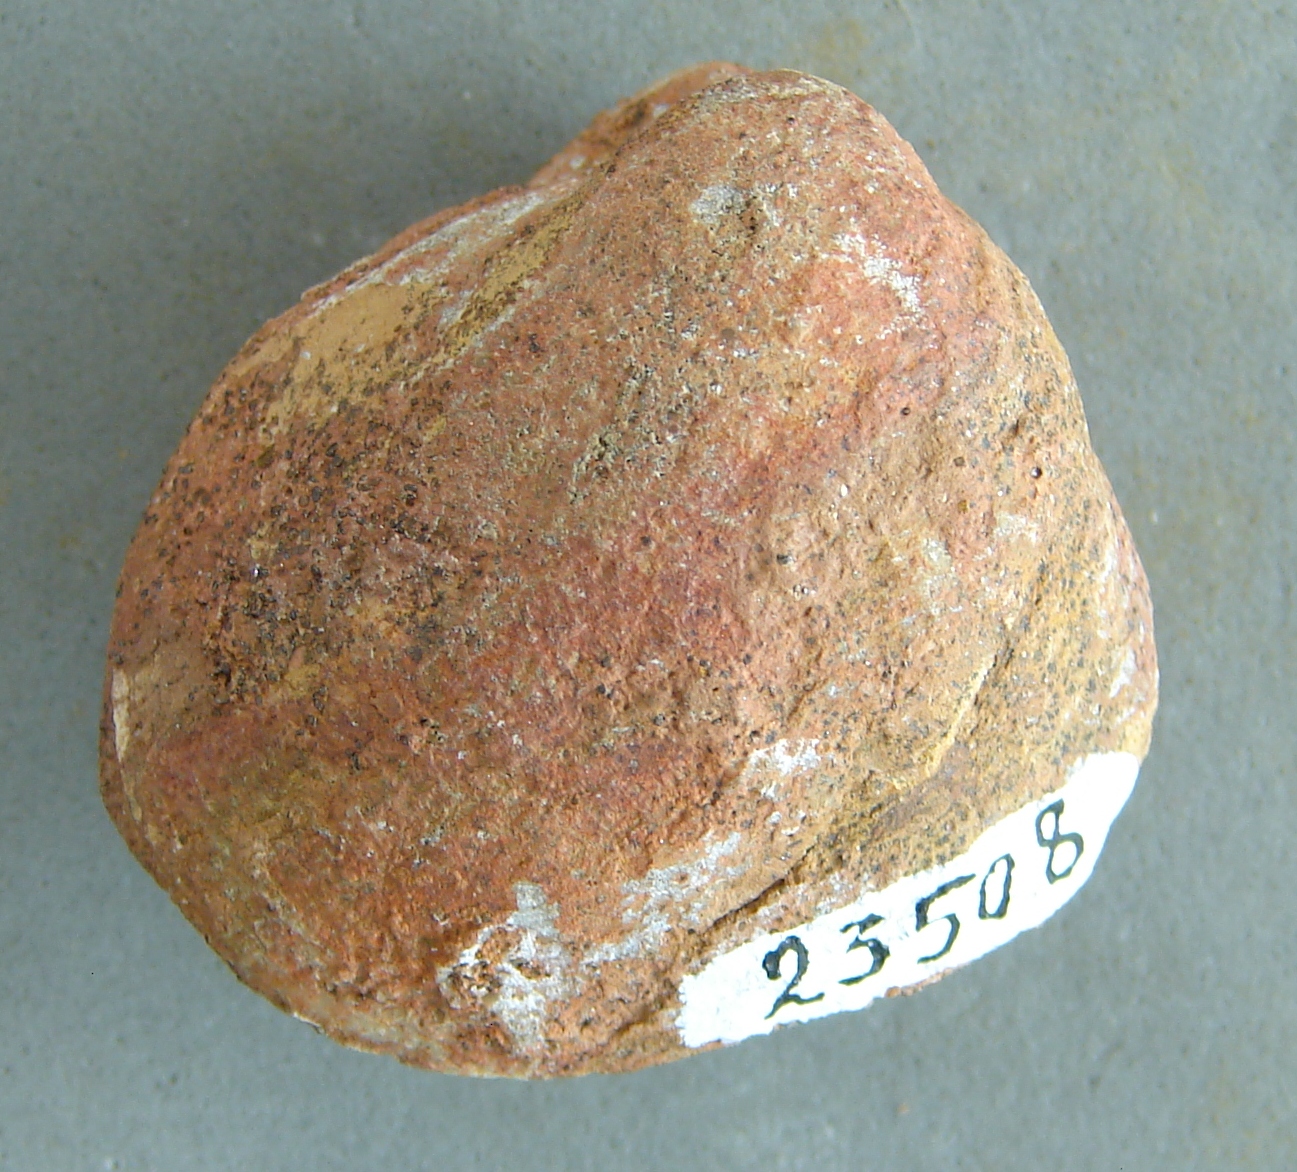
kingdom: Animalia
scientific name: Animalia
